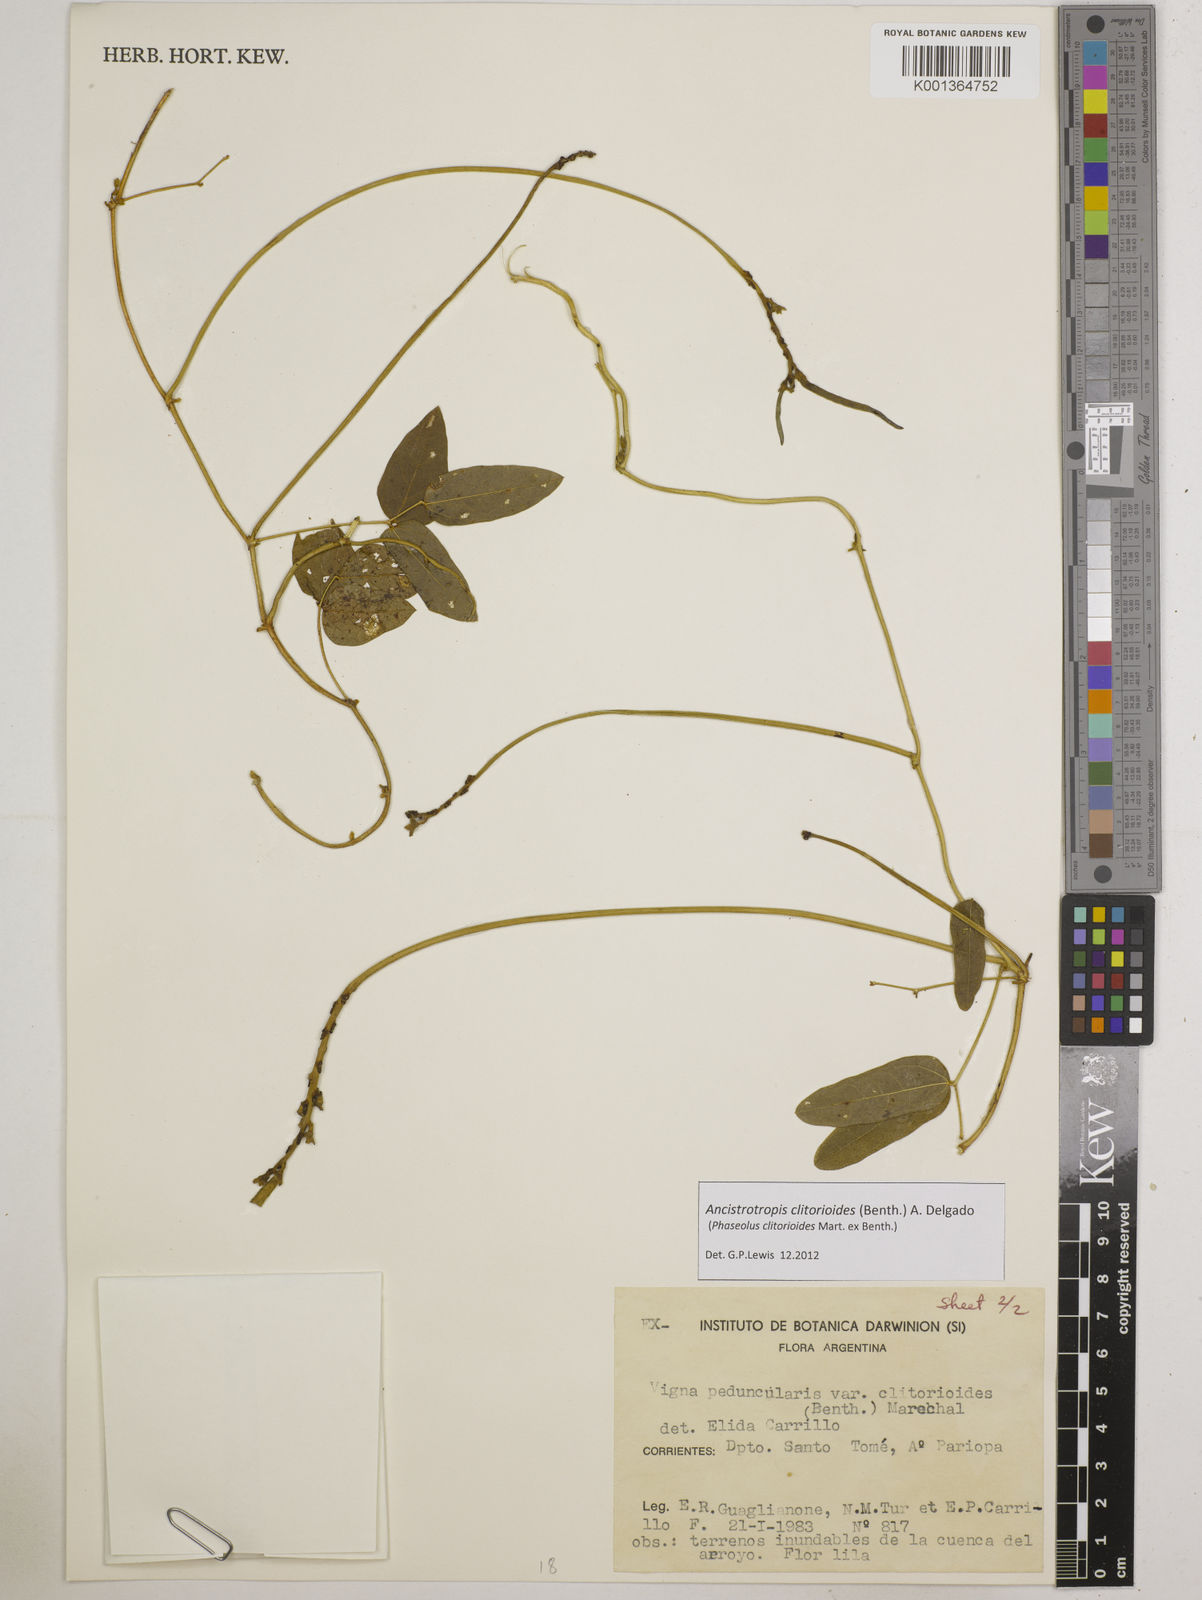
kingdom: Plantae
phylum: Tracheophyta
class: Magnoliopsida
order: Fabales
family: Fabaceae
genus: Ancistrotropis
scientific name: Ancistrotropis clitorioides
